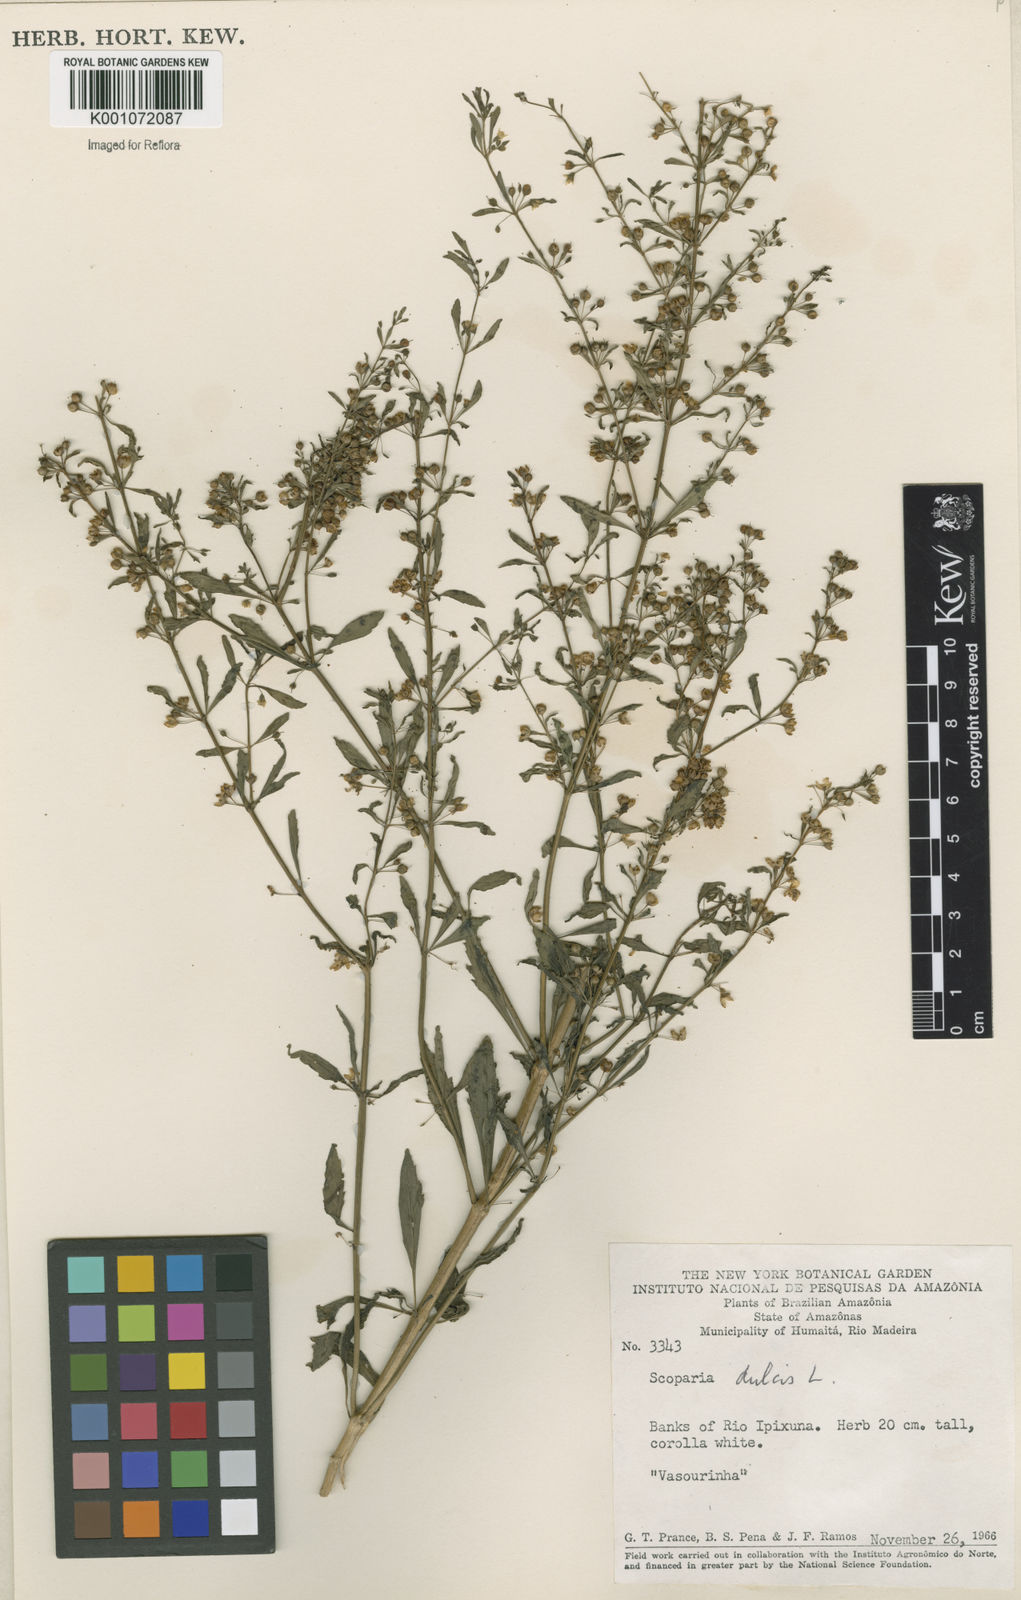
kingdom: Plantae
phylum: Tracheophyta
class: Magnoliopsida
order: Lamiales
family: Plantaginaceae
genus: Scoparia
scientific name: Scoparia dulcis
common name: Scoparia-weed
